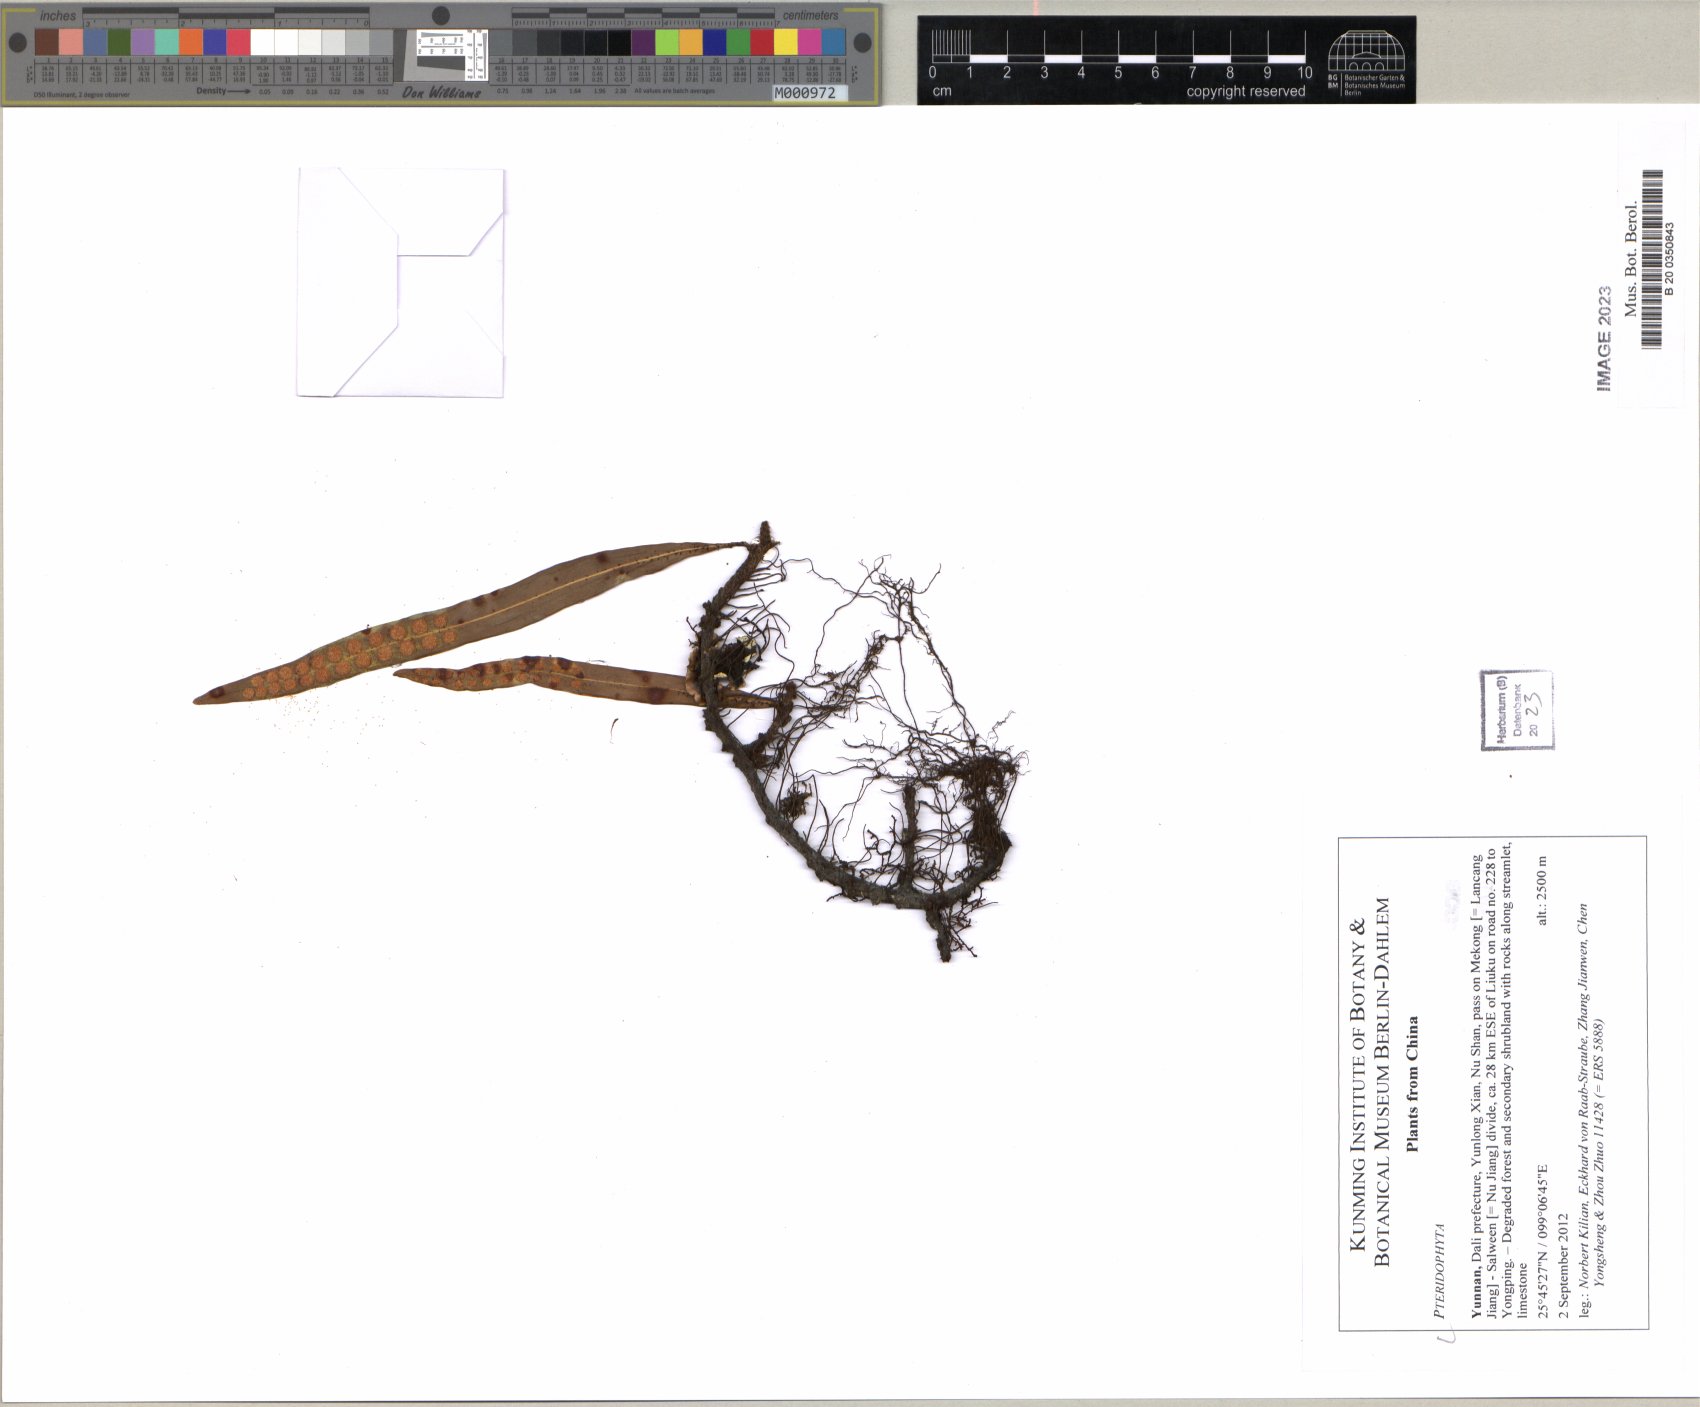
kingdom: Plantae
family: Pteridophyta
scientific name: Pteridophyta
